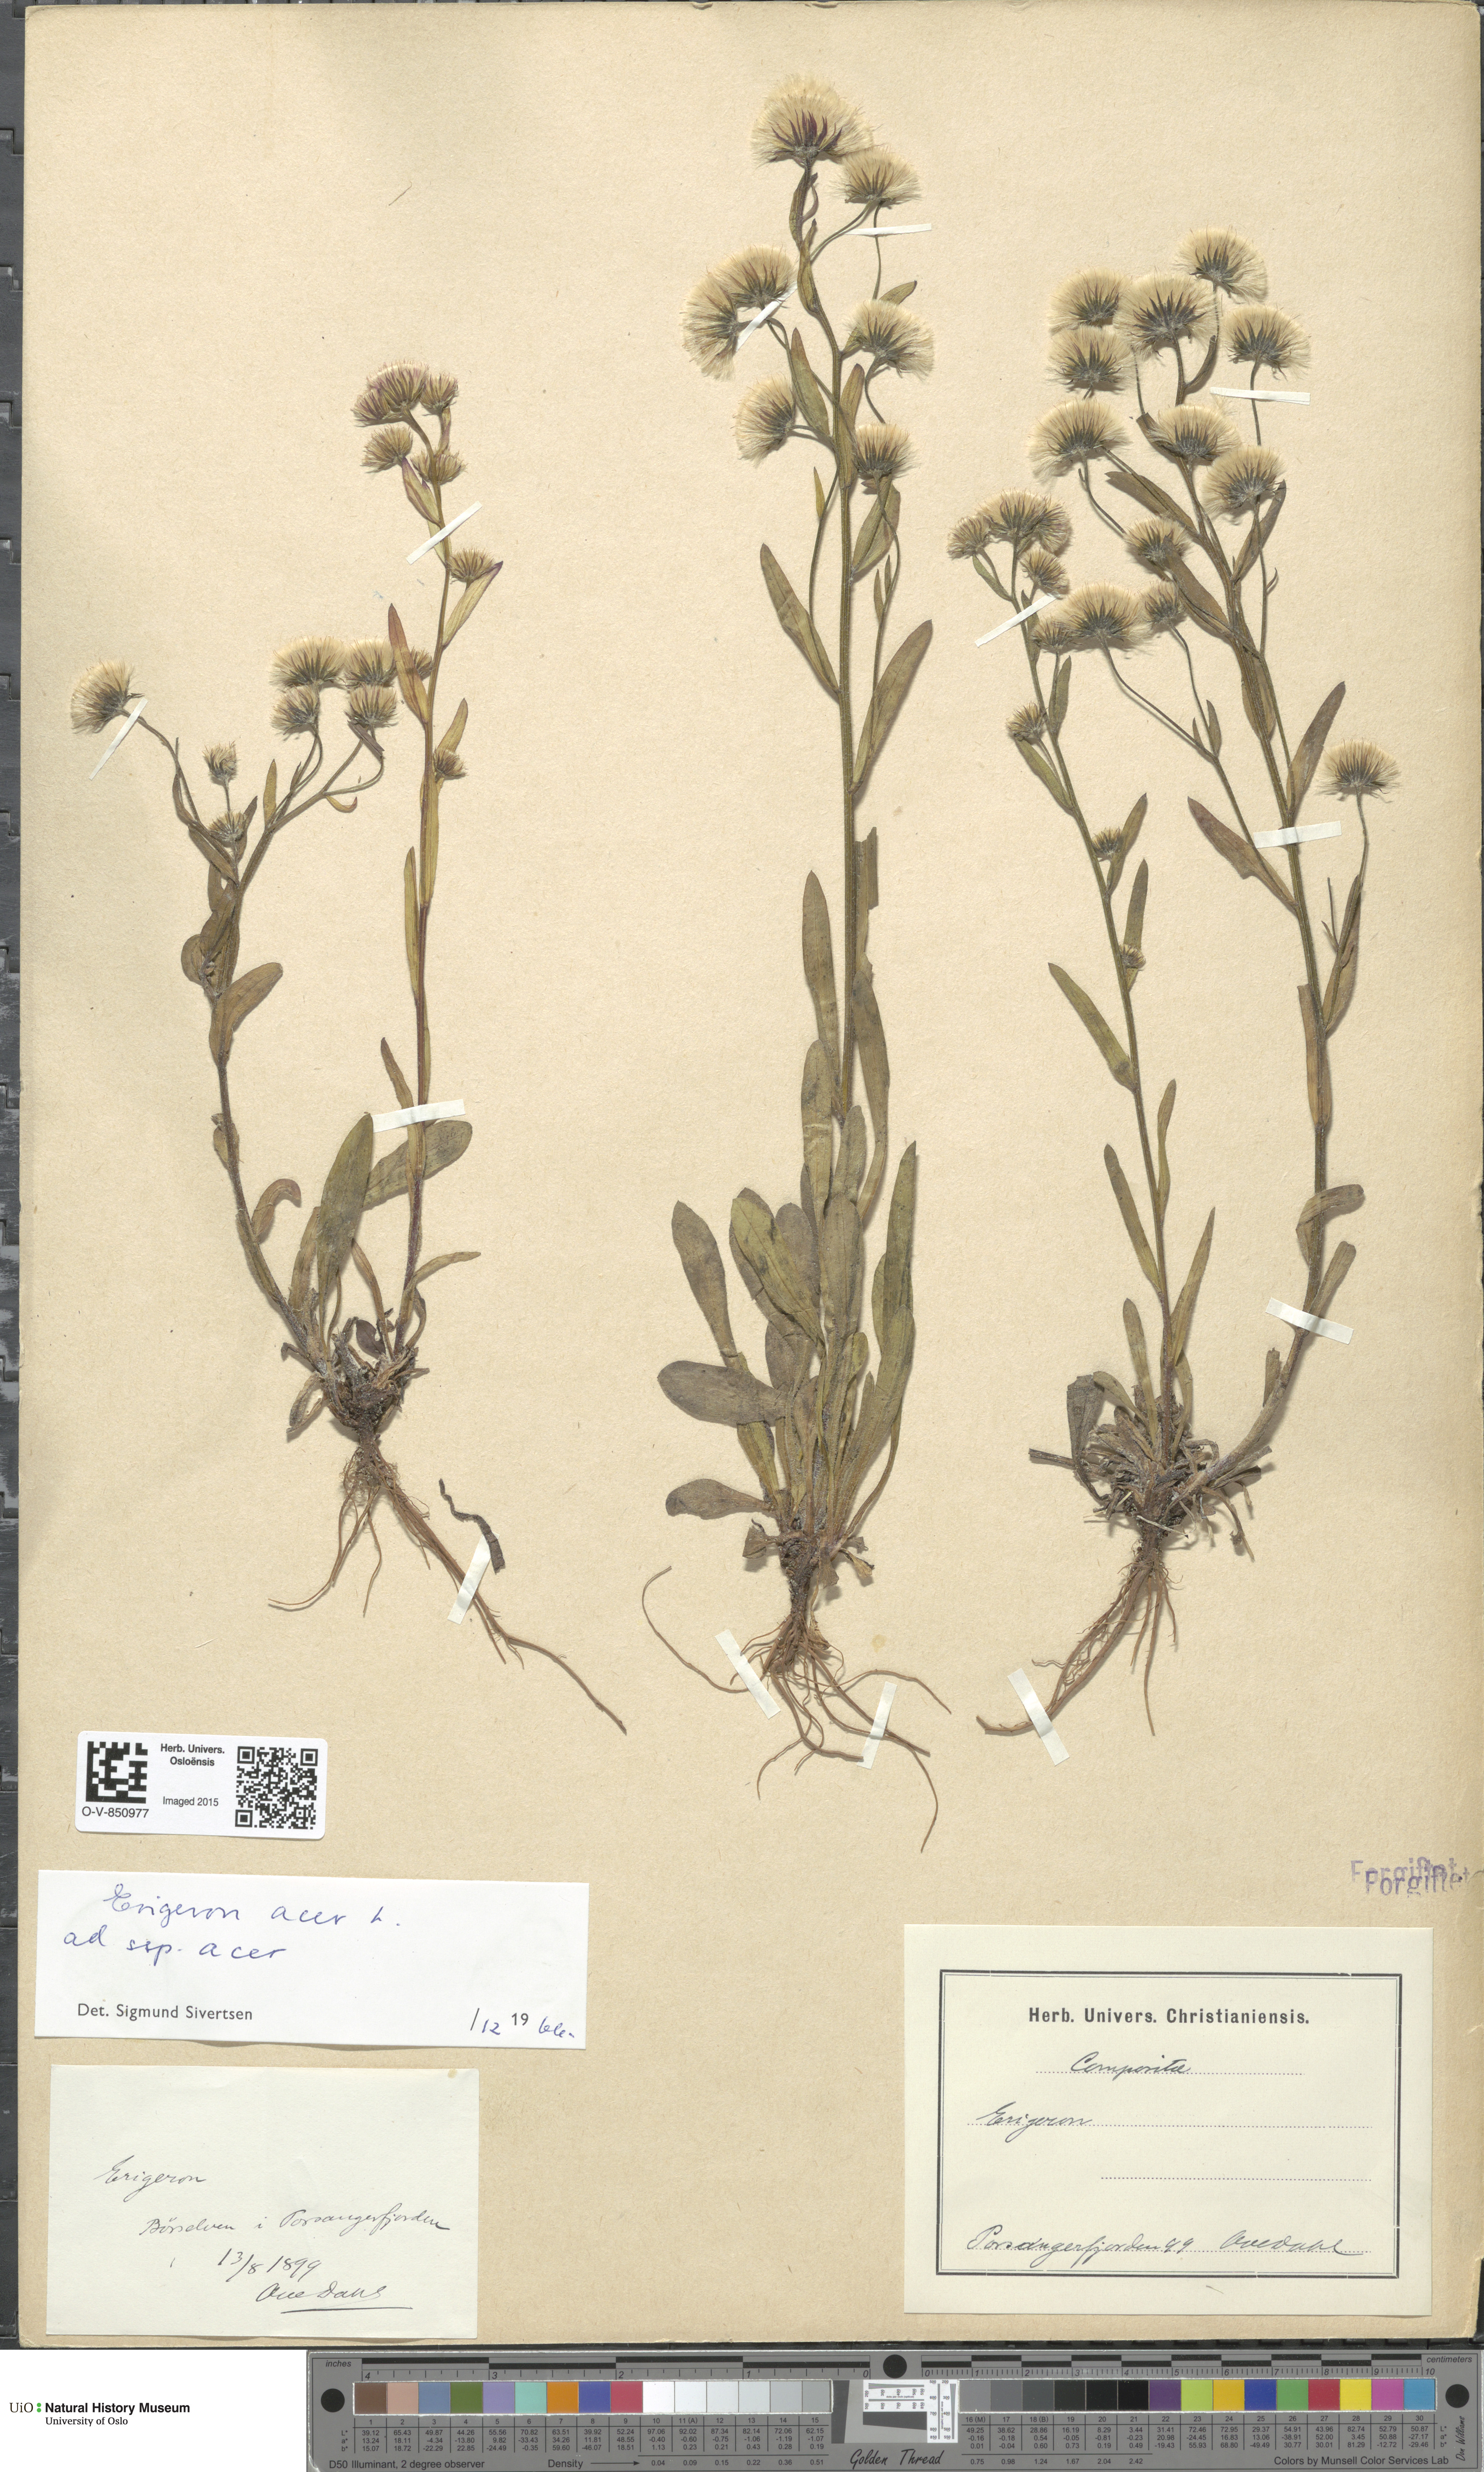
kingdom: Plantae
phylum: Tracheophyta
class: Magnoliopsida
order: Asterales
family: Asteraceae
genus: Erigeron
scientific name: Erigeron acris
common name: Blue fleabane
